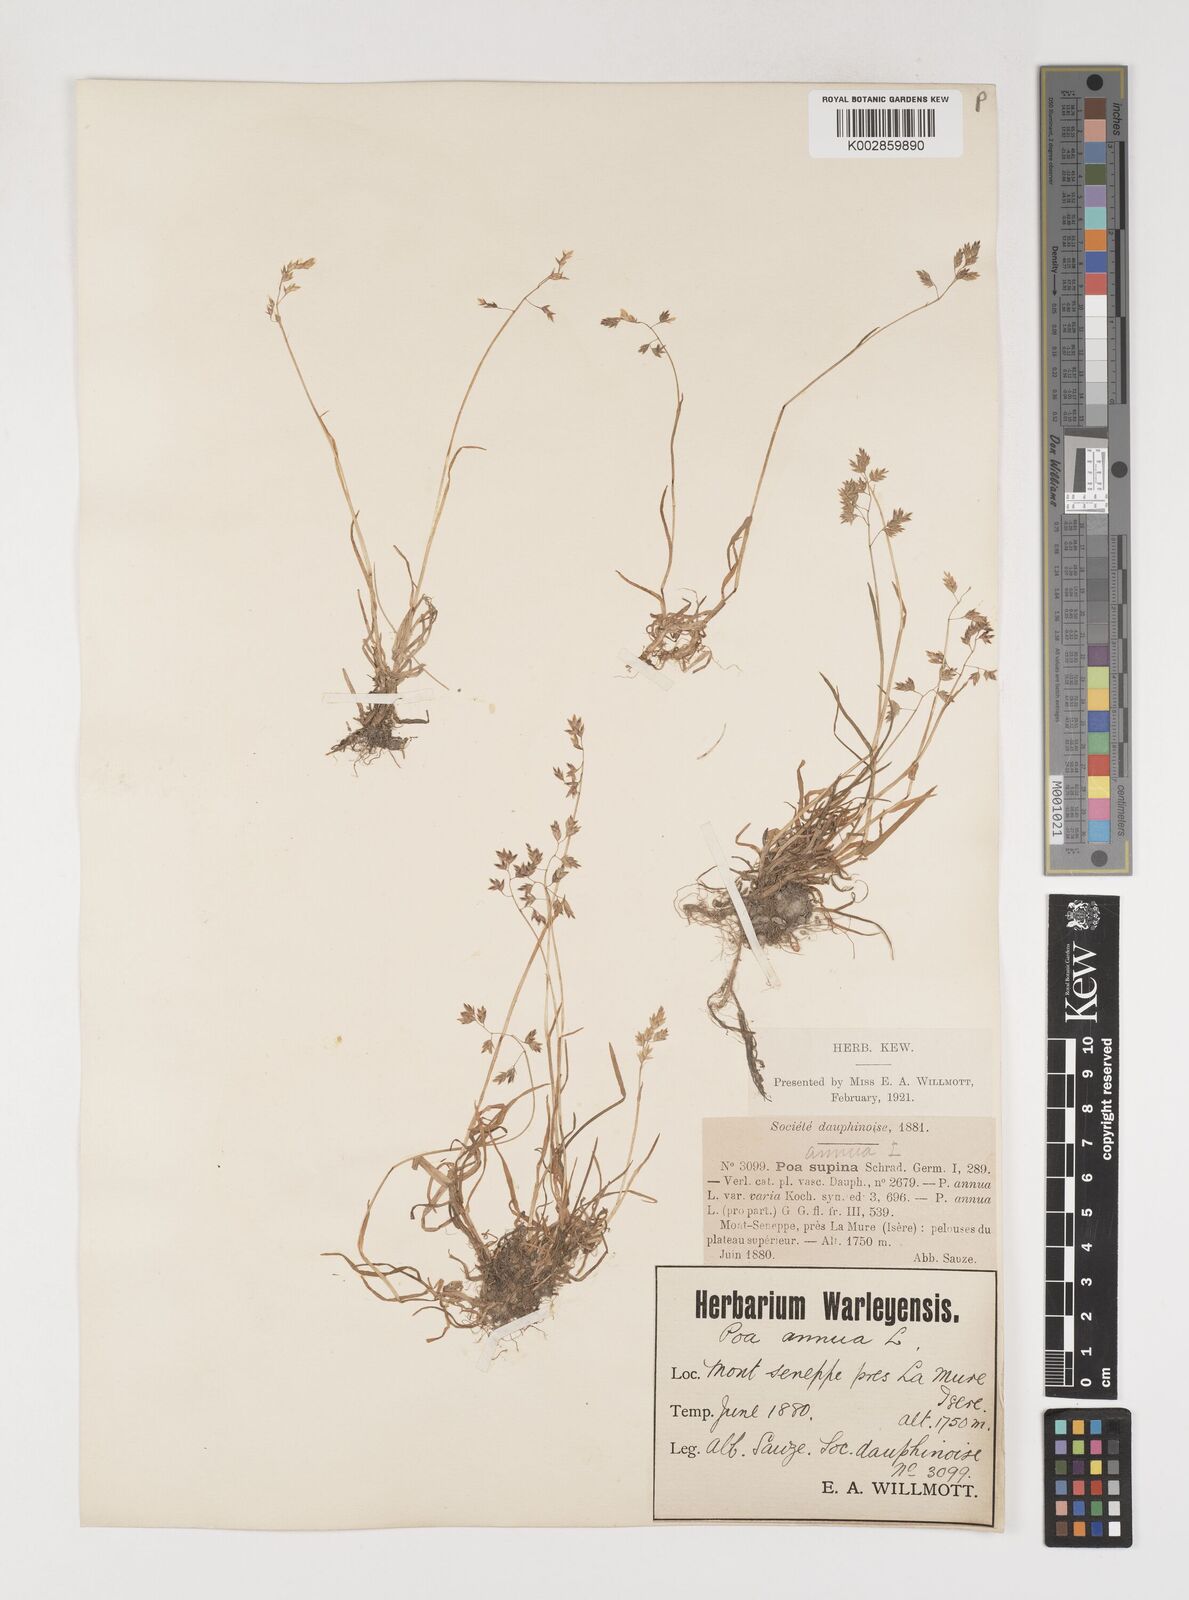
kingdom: Plantae
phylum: Tracheophyta
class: Liliopsida
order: Poales
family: Poaceae
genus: Poa
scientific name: Poa annua
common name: Annual bluegrass
